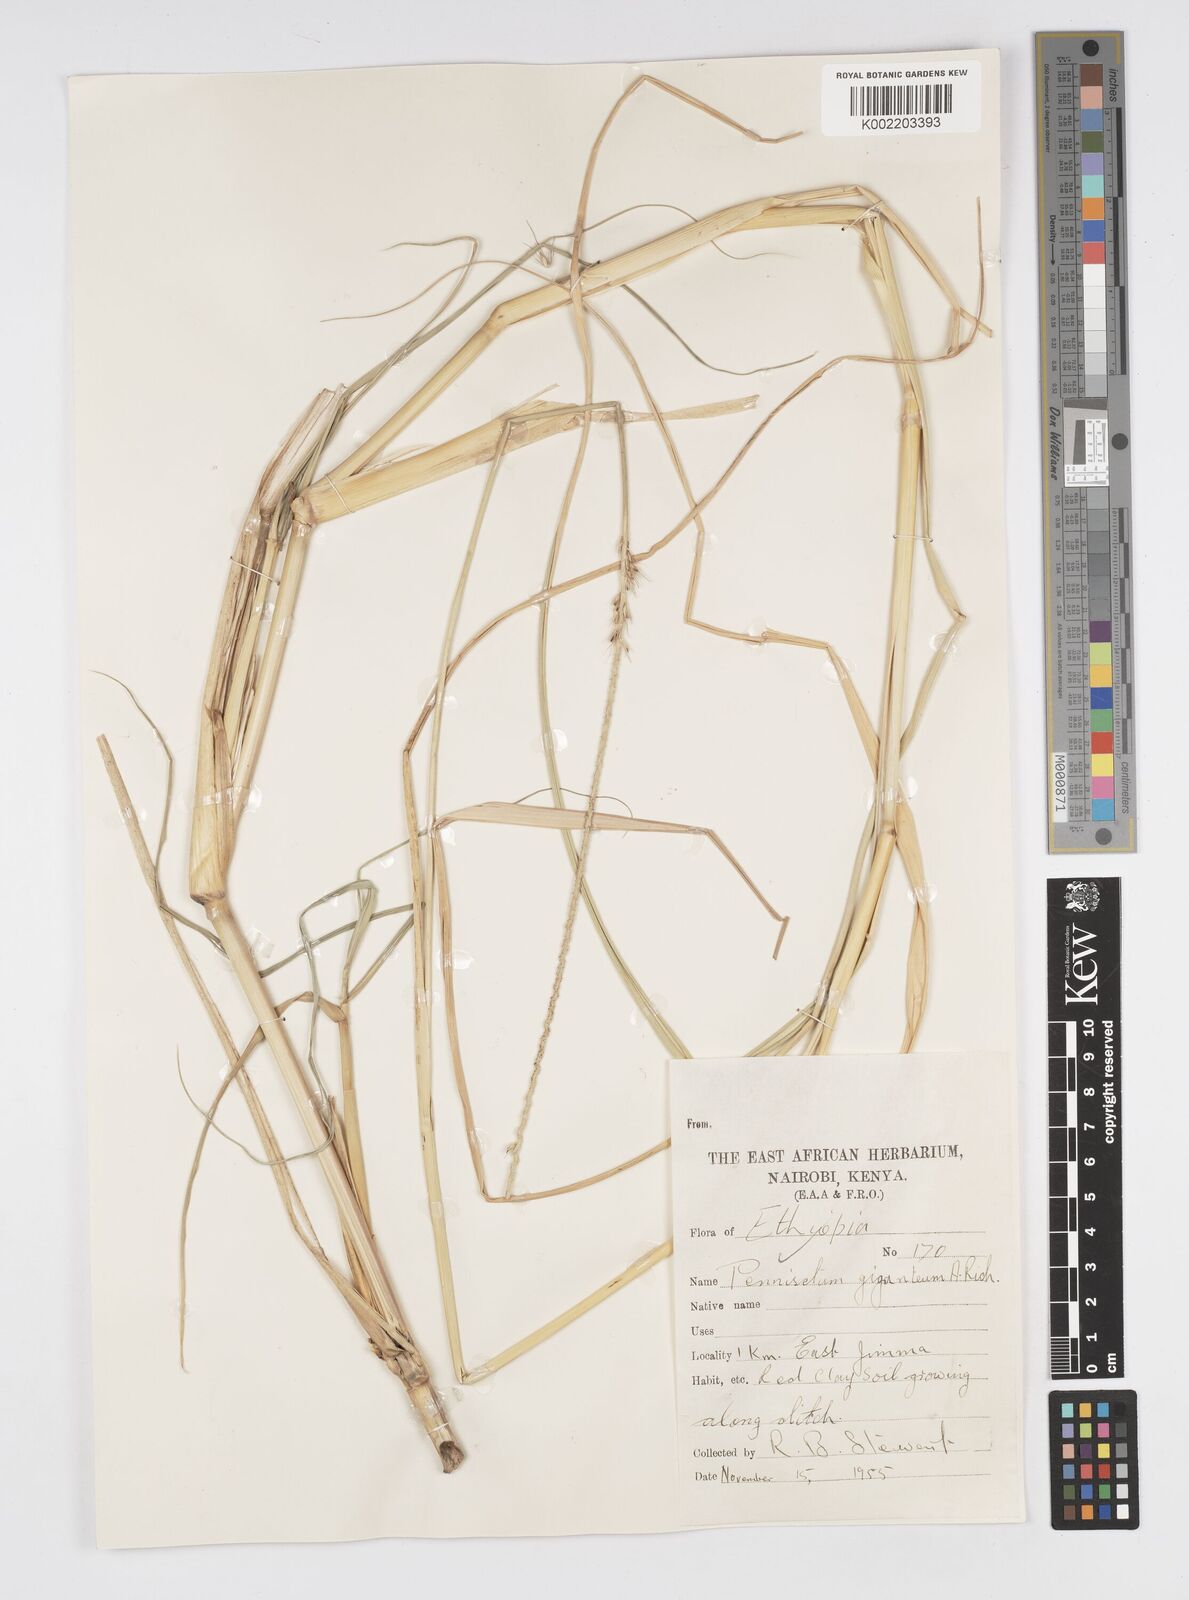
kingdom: Plantae
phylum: Tracheophyta
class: Liliopsida
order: Poales
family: Poaceae
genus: Cenchrus
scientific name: Cenchrus caudatus
